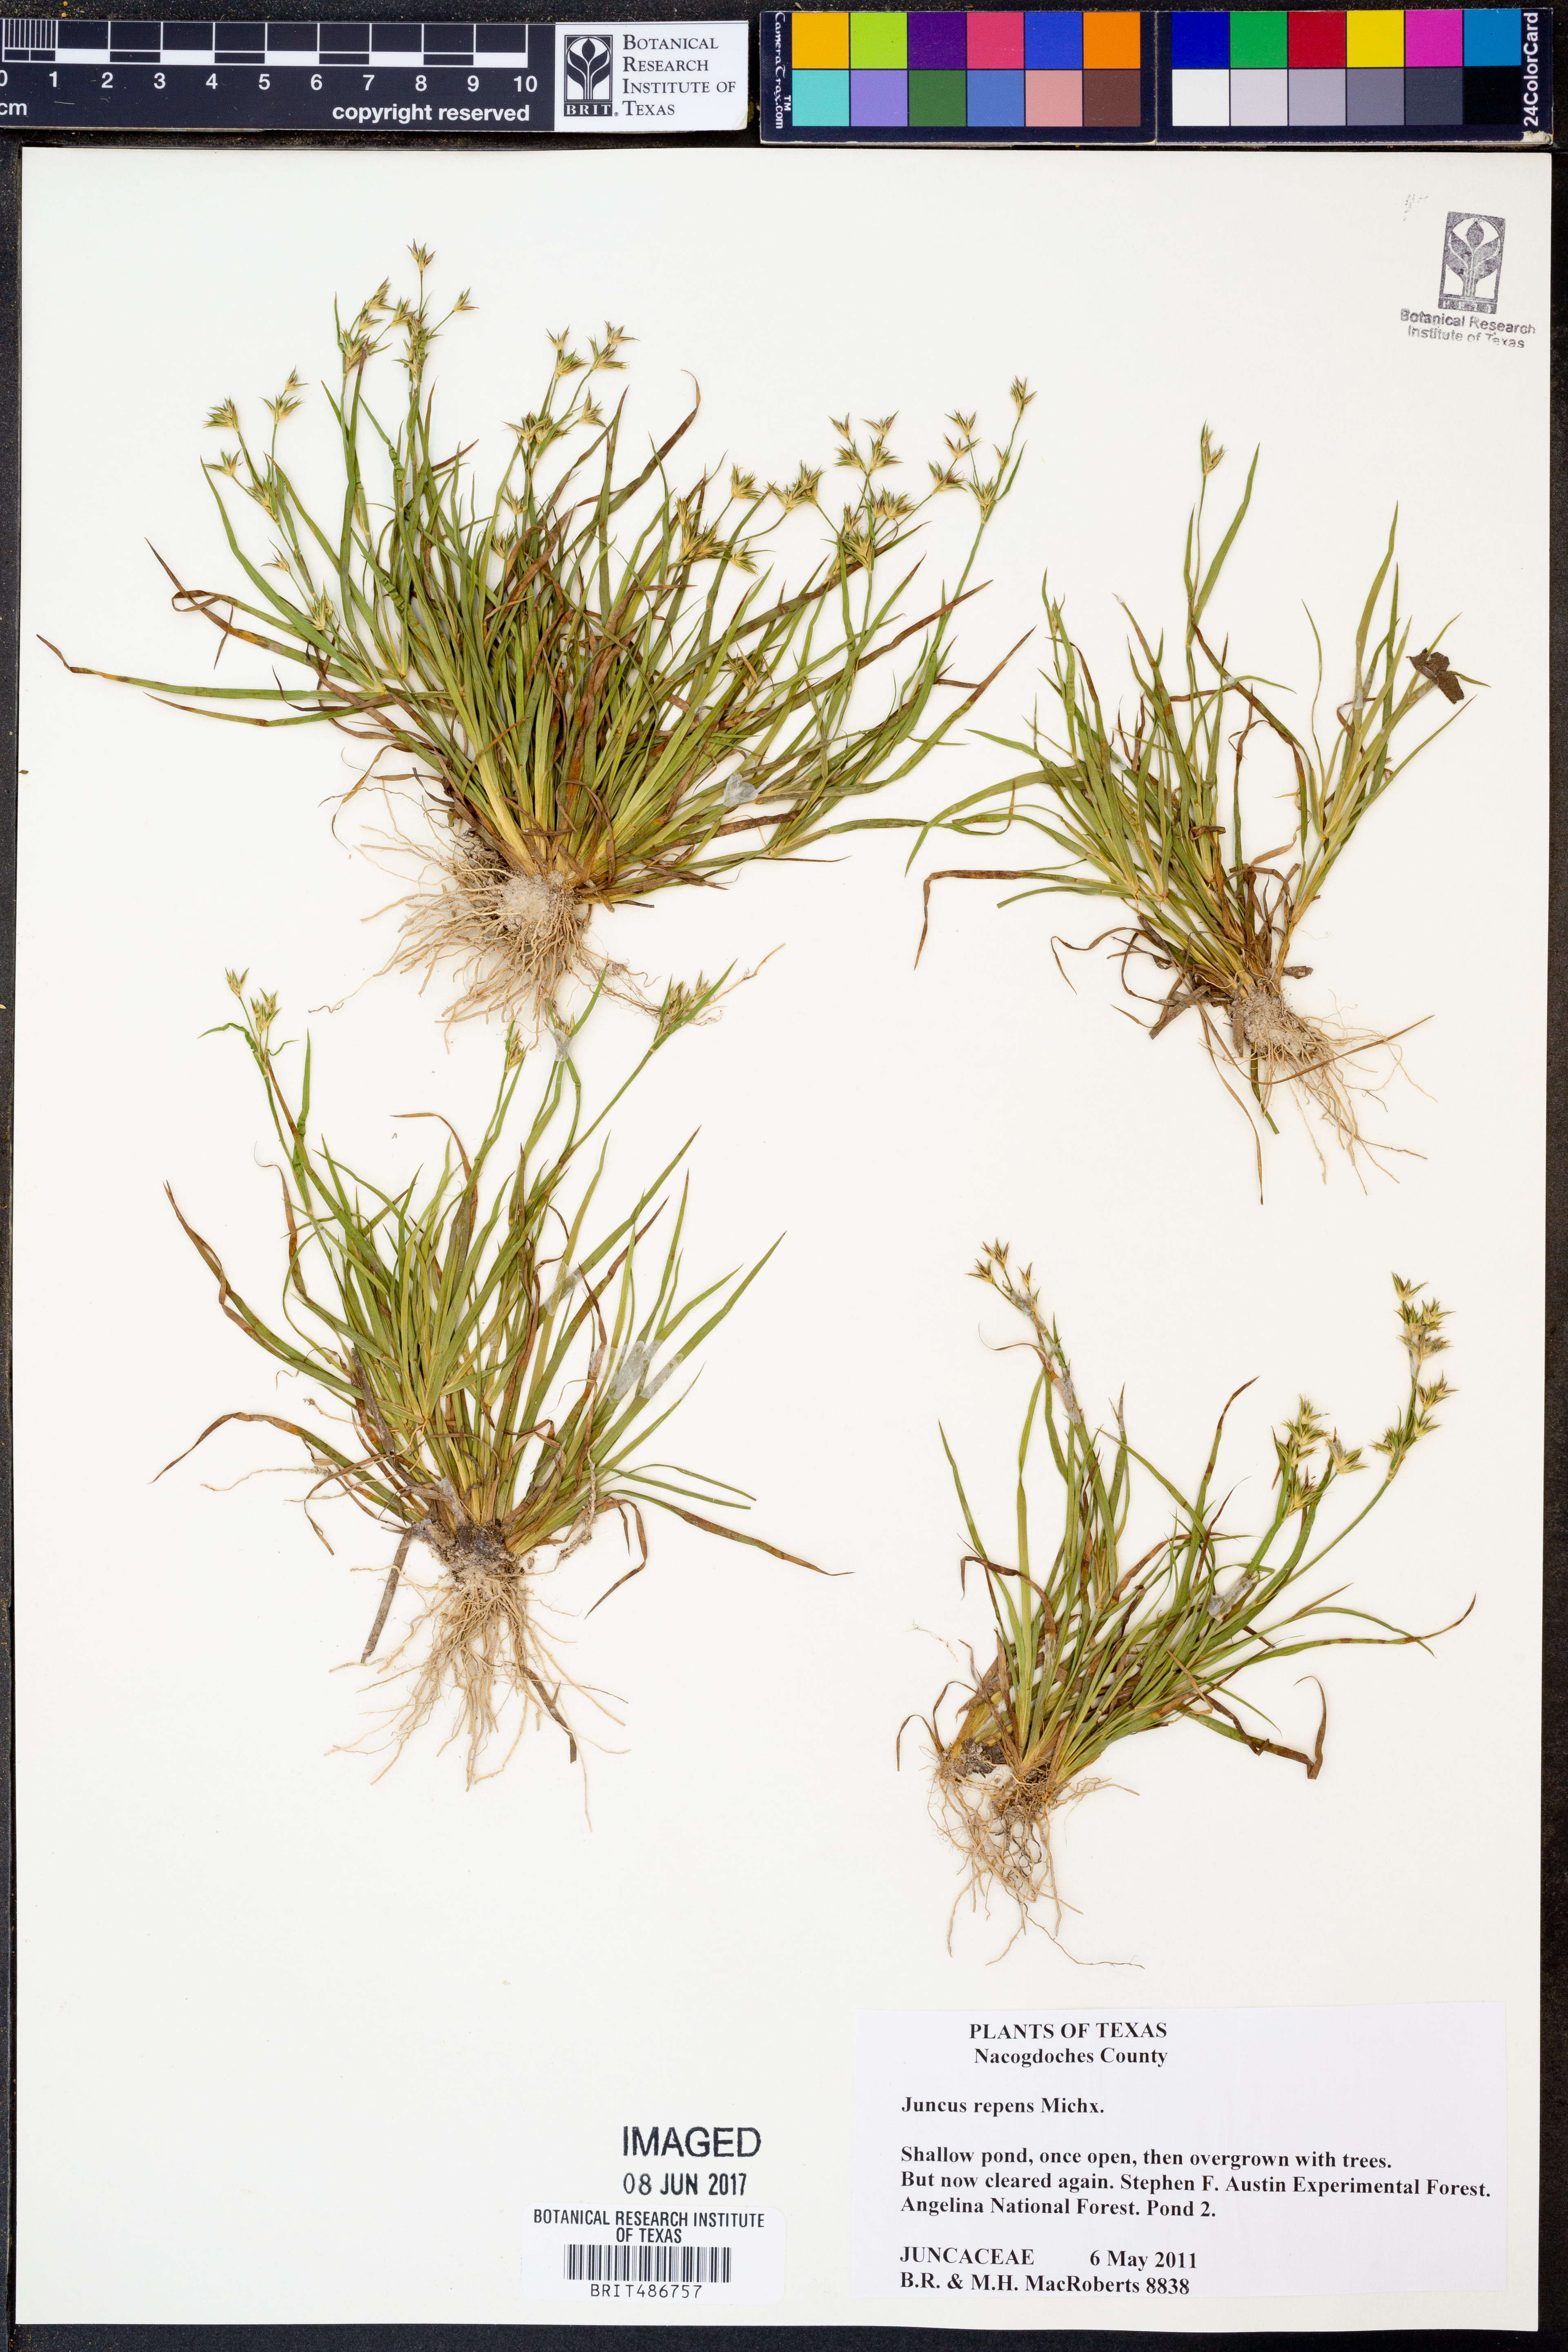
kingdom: Plantae
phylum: Tracheophyta
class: Liliopsida
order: Poales
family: Juncaceae
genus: Juncus
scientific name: Juncus repens
